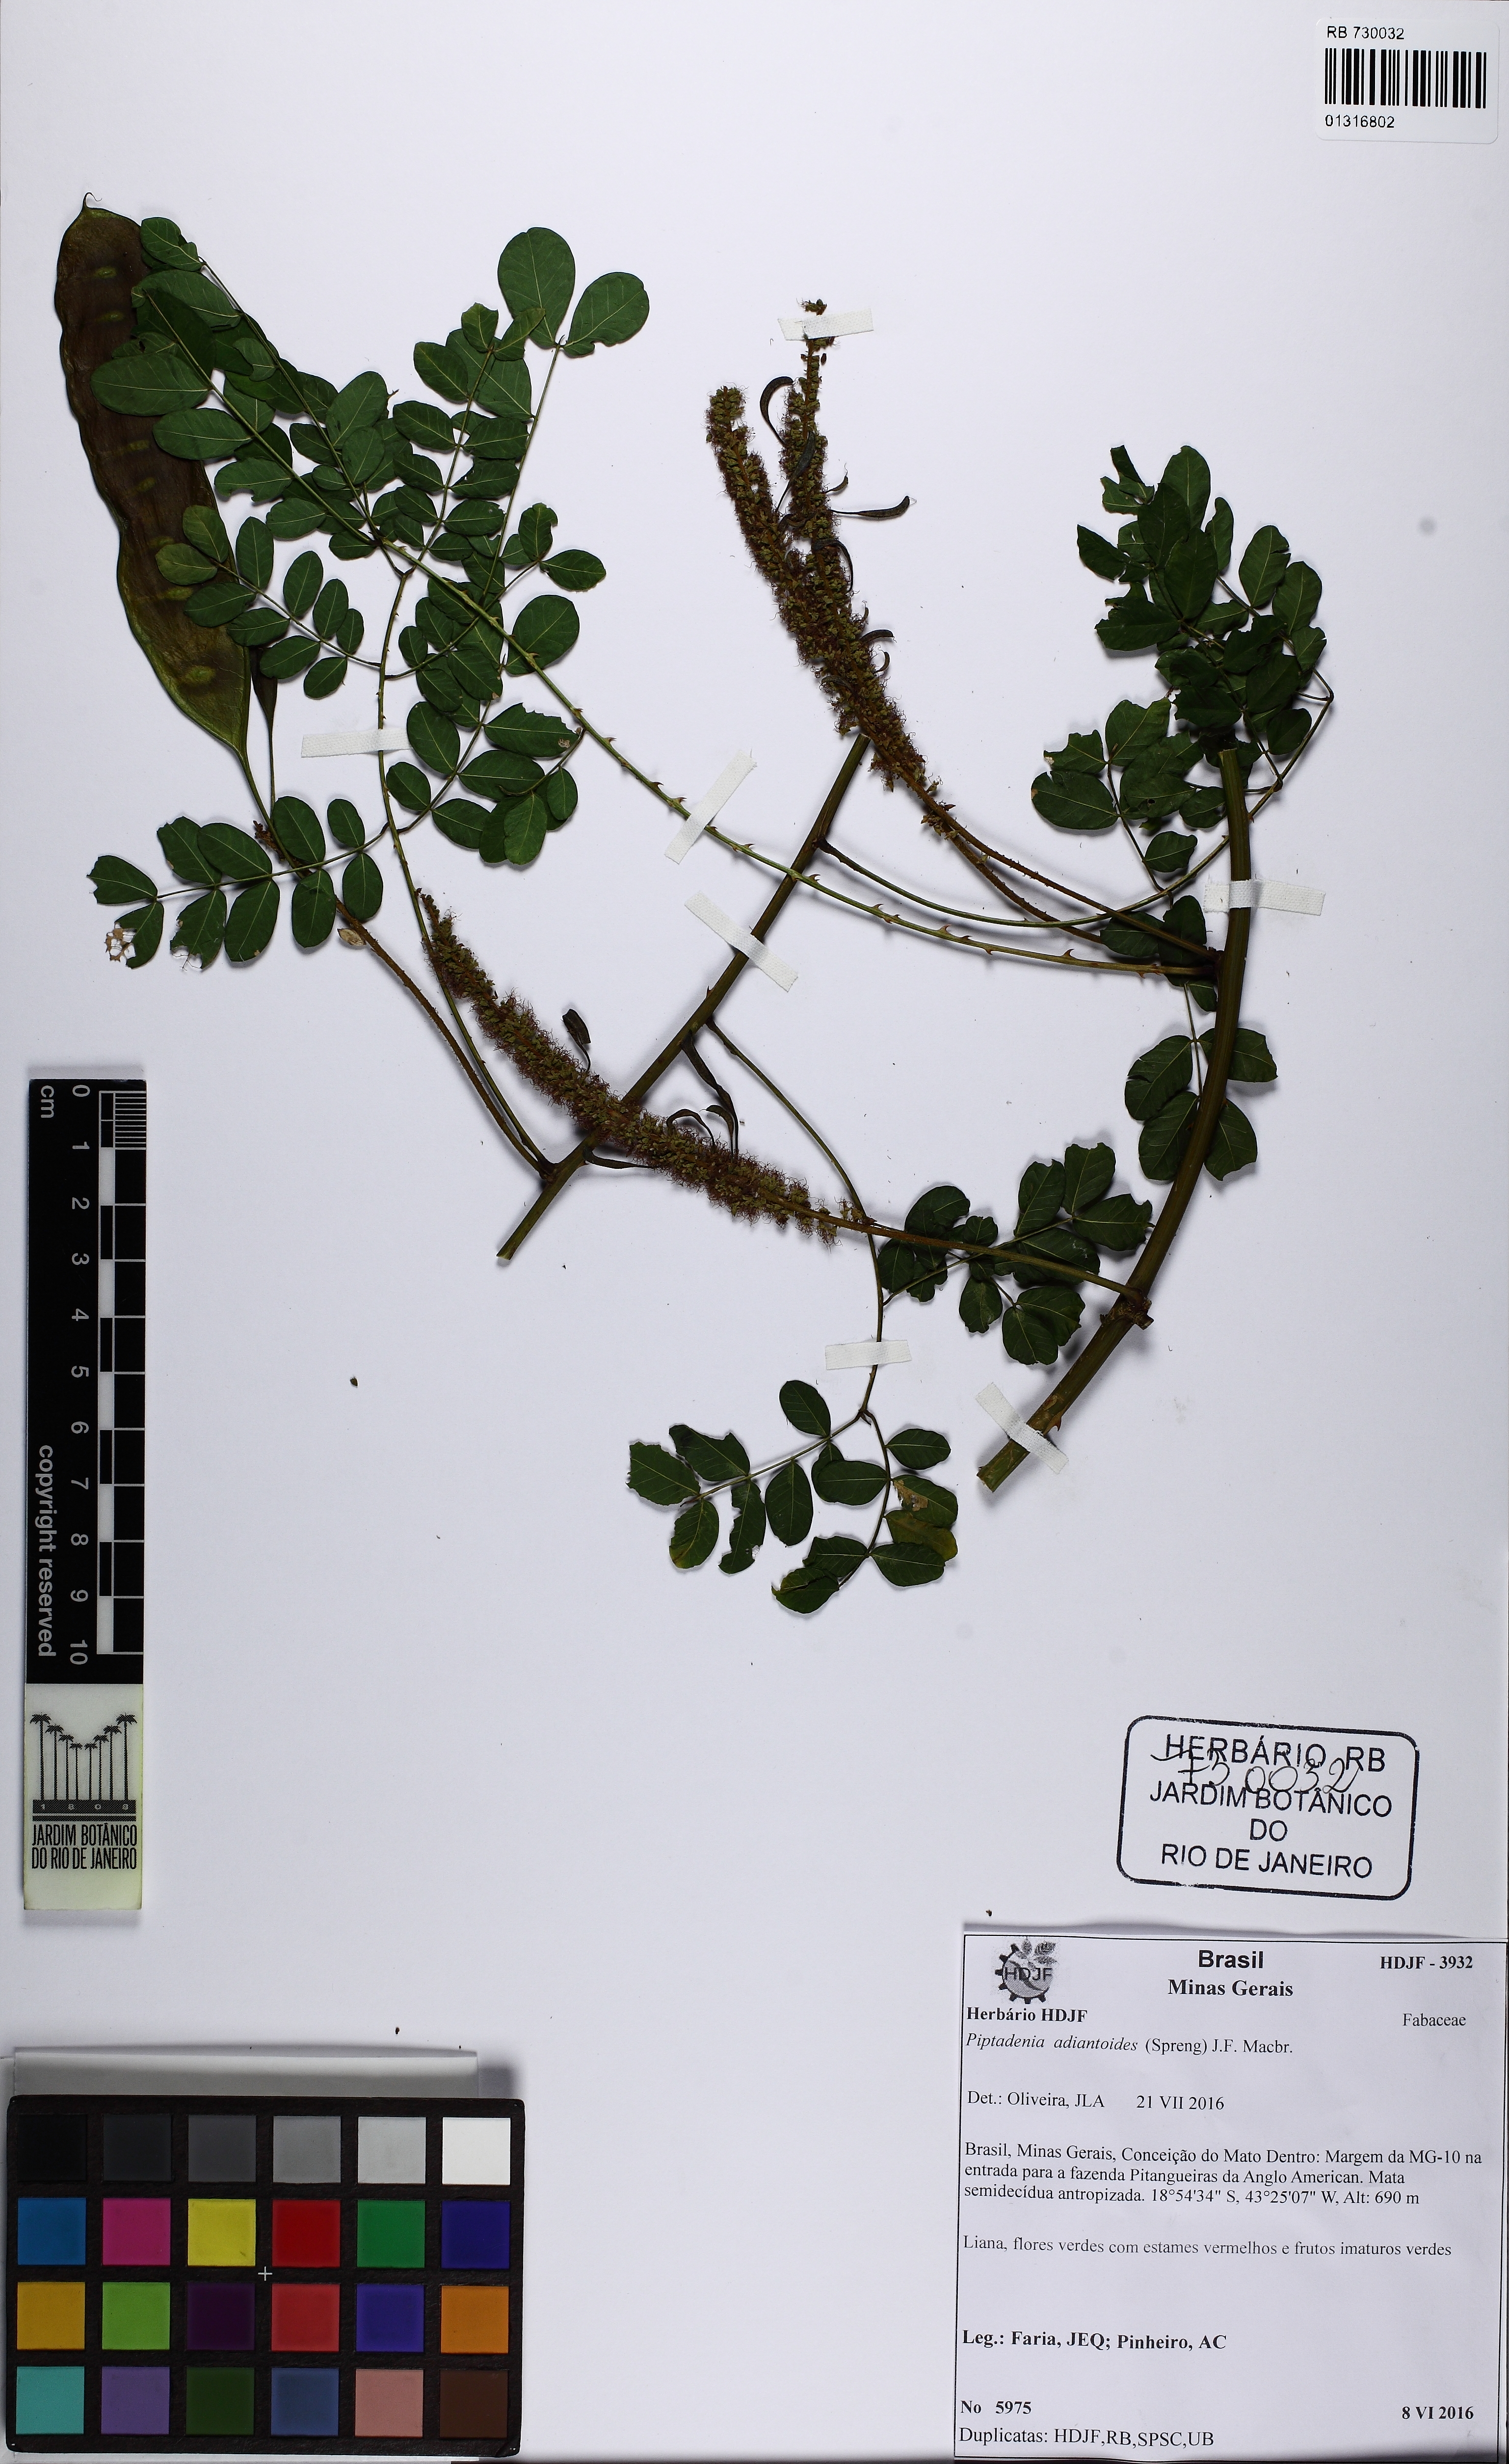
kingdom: Plantae
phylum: Tracheophyta
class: Magnoliopsida
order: Fabales
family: Fabaceae
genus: Piptadenia
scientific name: Piptadenia adiantoides
